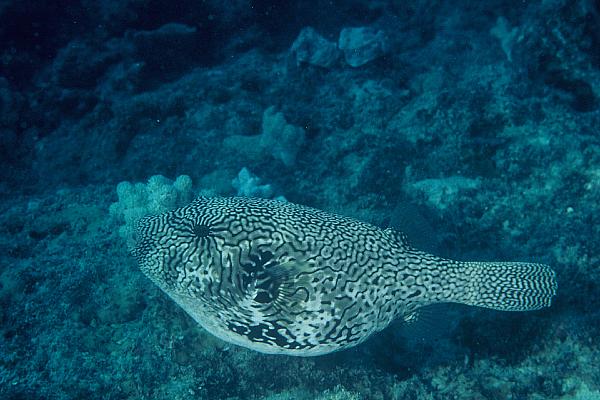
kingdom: Animalia
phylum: Chordata
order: Tetraodontiformes
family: Tetraodontidae
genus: Arothron
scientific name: Arothron mappa
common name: Map blaasop
